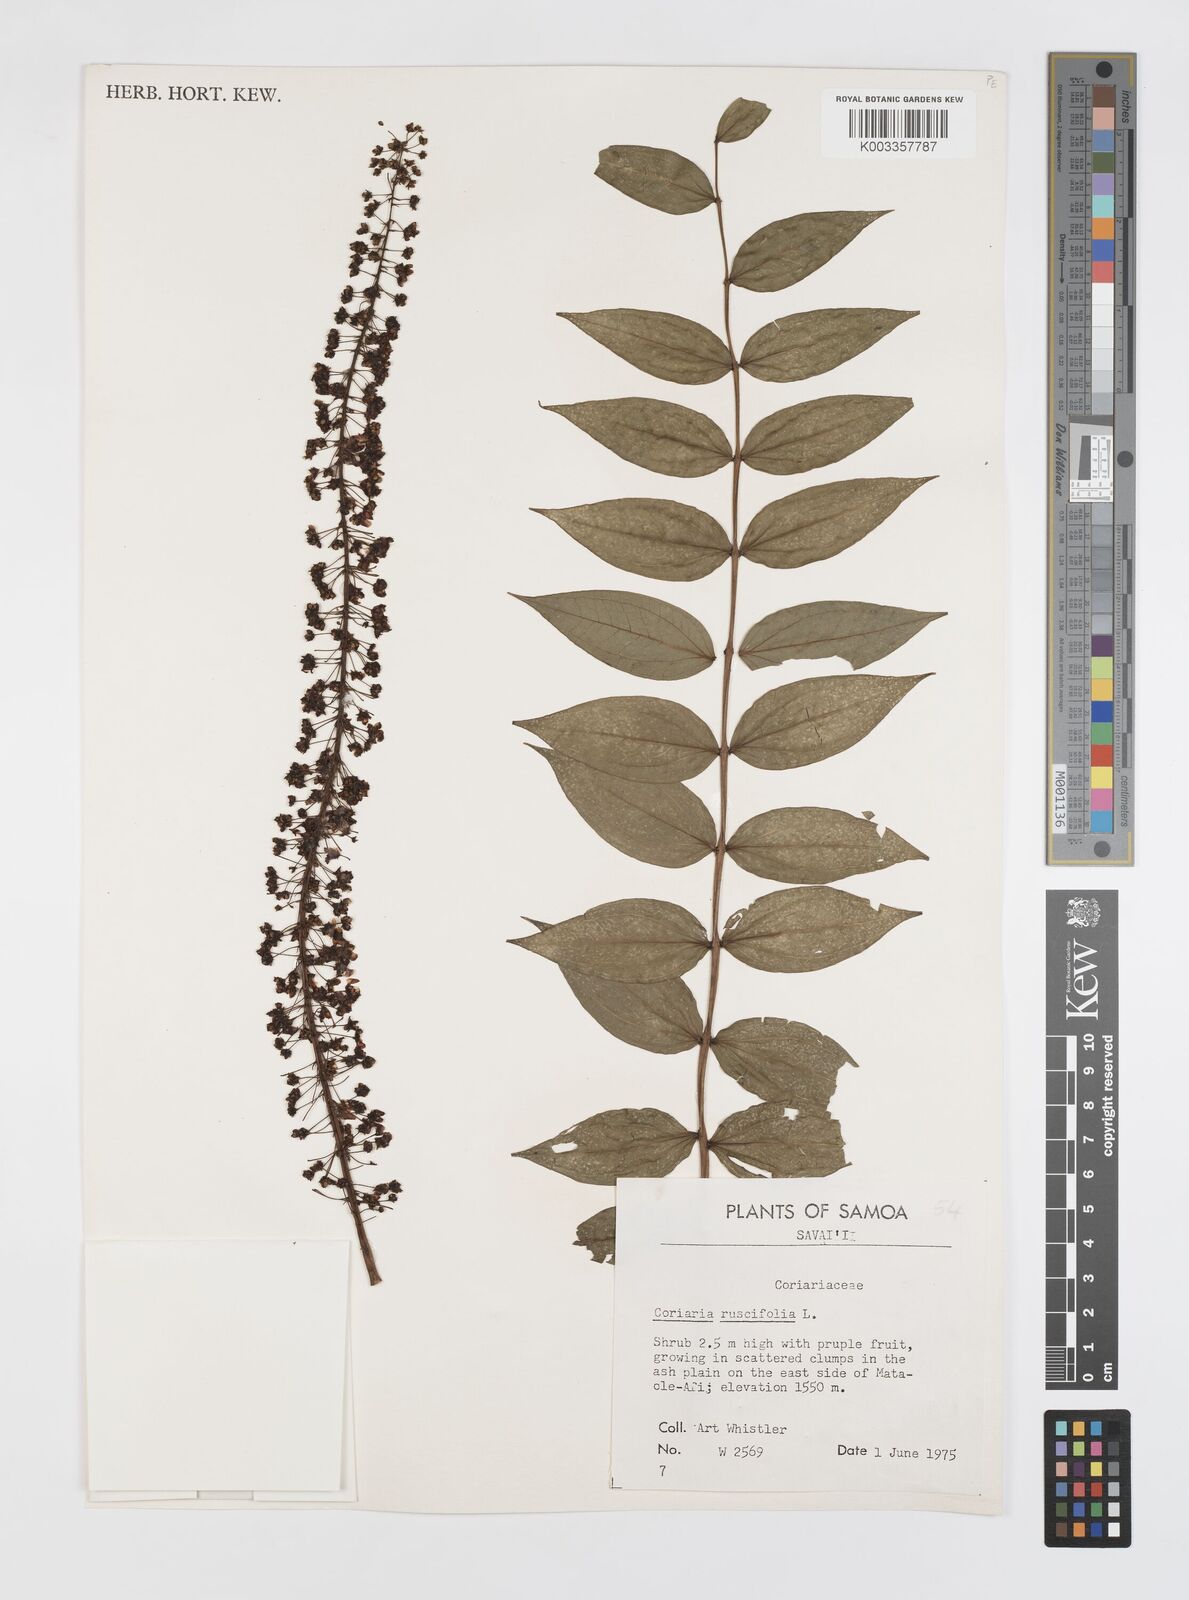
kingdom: Plantae
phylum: Tracheophyta
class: Magnoliopsida
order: Cucurbitales
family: Coriariaceae
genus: Coriaria
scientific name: Coriaria ruscifolia
